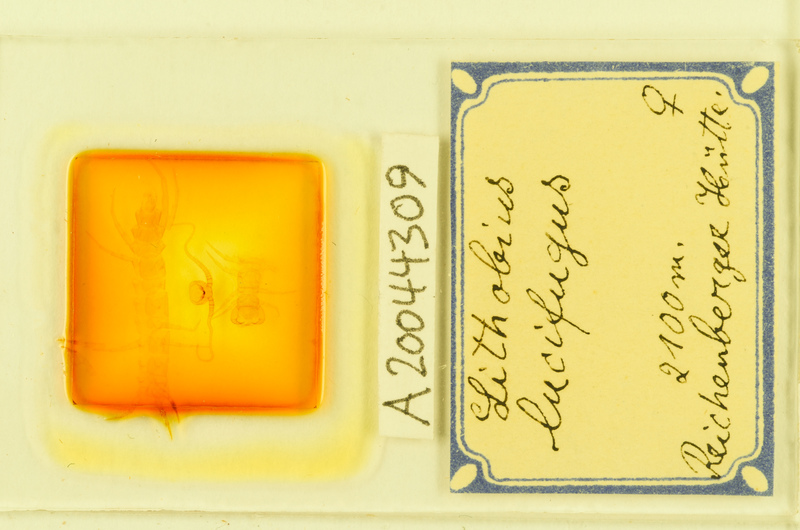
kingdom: Animalia
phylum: Arthropoda
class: Chilopoda
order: Lithobiomorpha
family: Lithobiidae
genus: Lithobius
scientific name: Lithobius lucifugus
